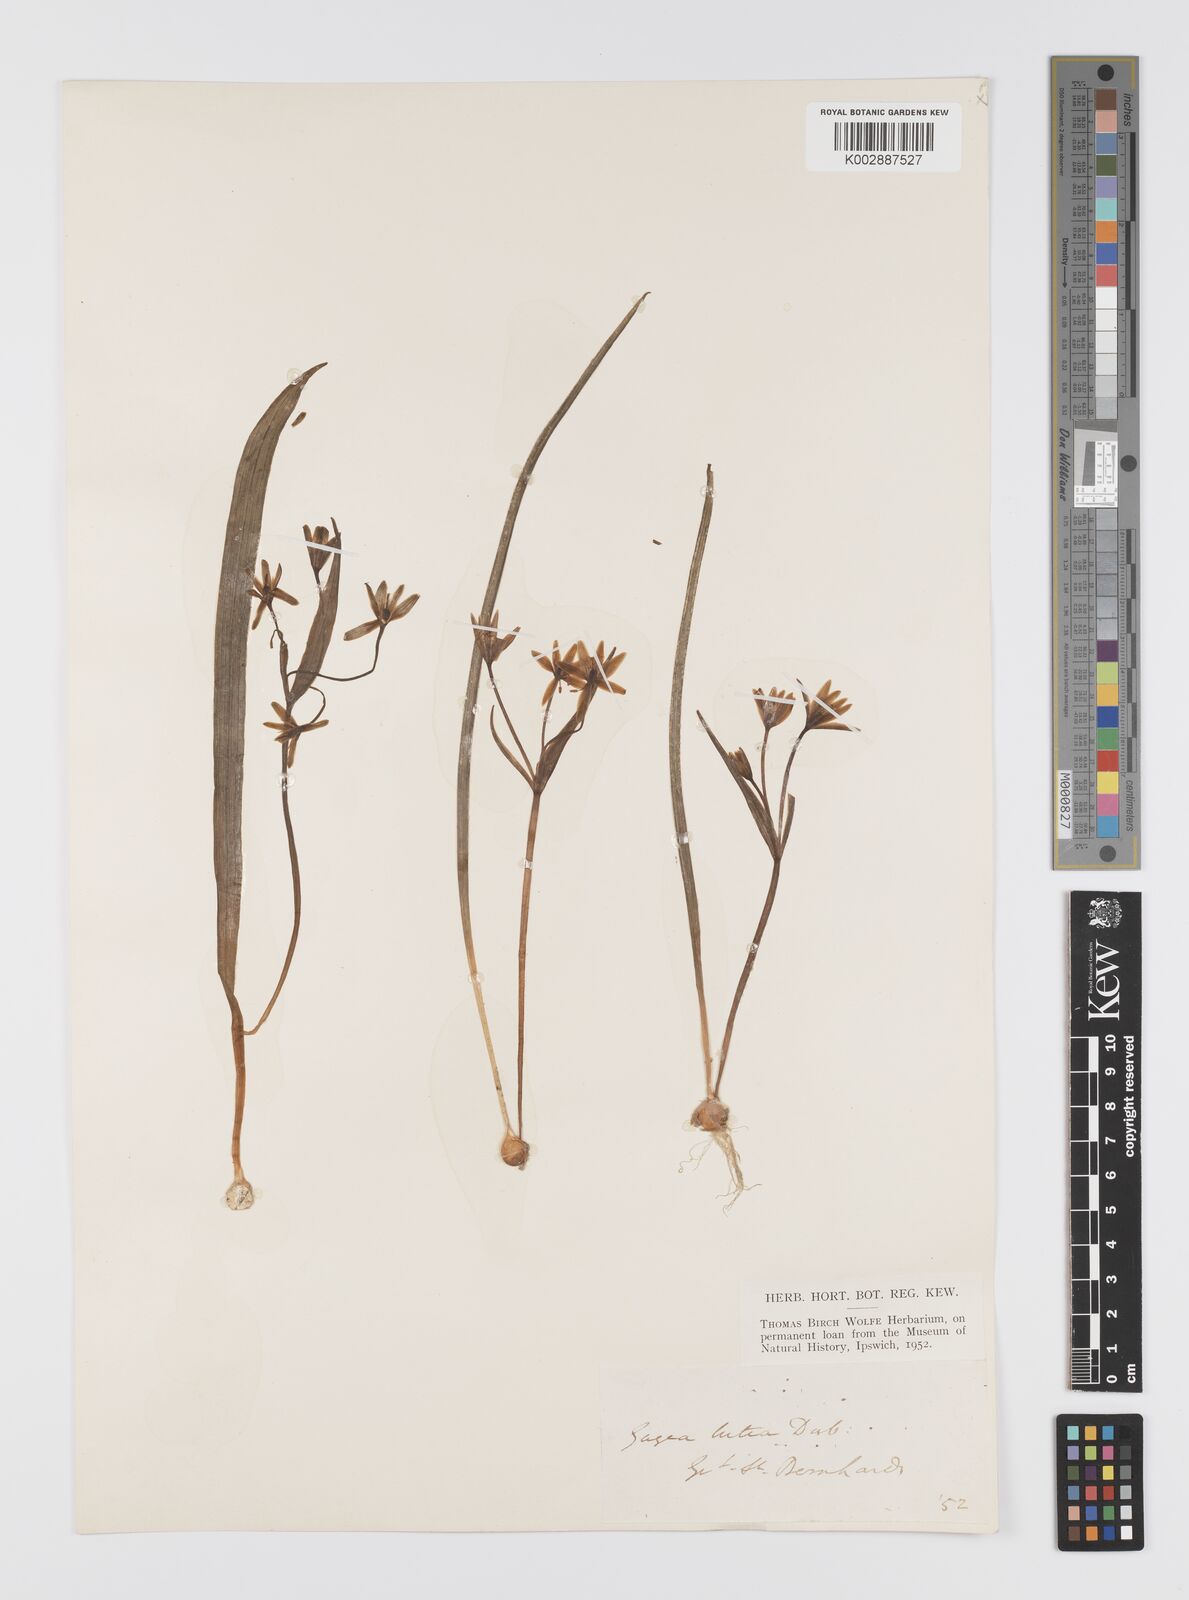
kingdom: Plantae
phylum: Tracheophyta
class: Liliopsida
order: Liliales
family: Liliaceae
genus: Gagea
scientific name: Gagea lutea
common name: Yellow star-of-bethlehem
